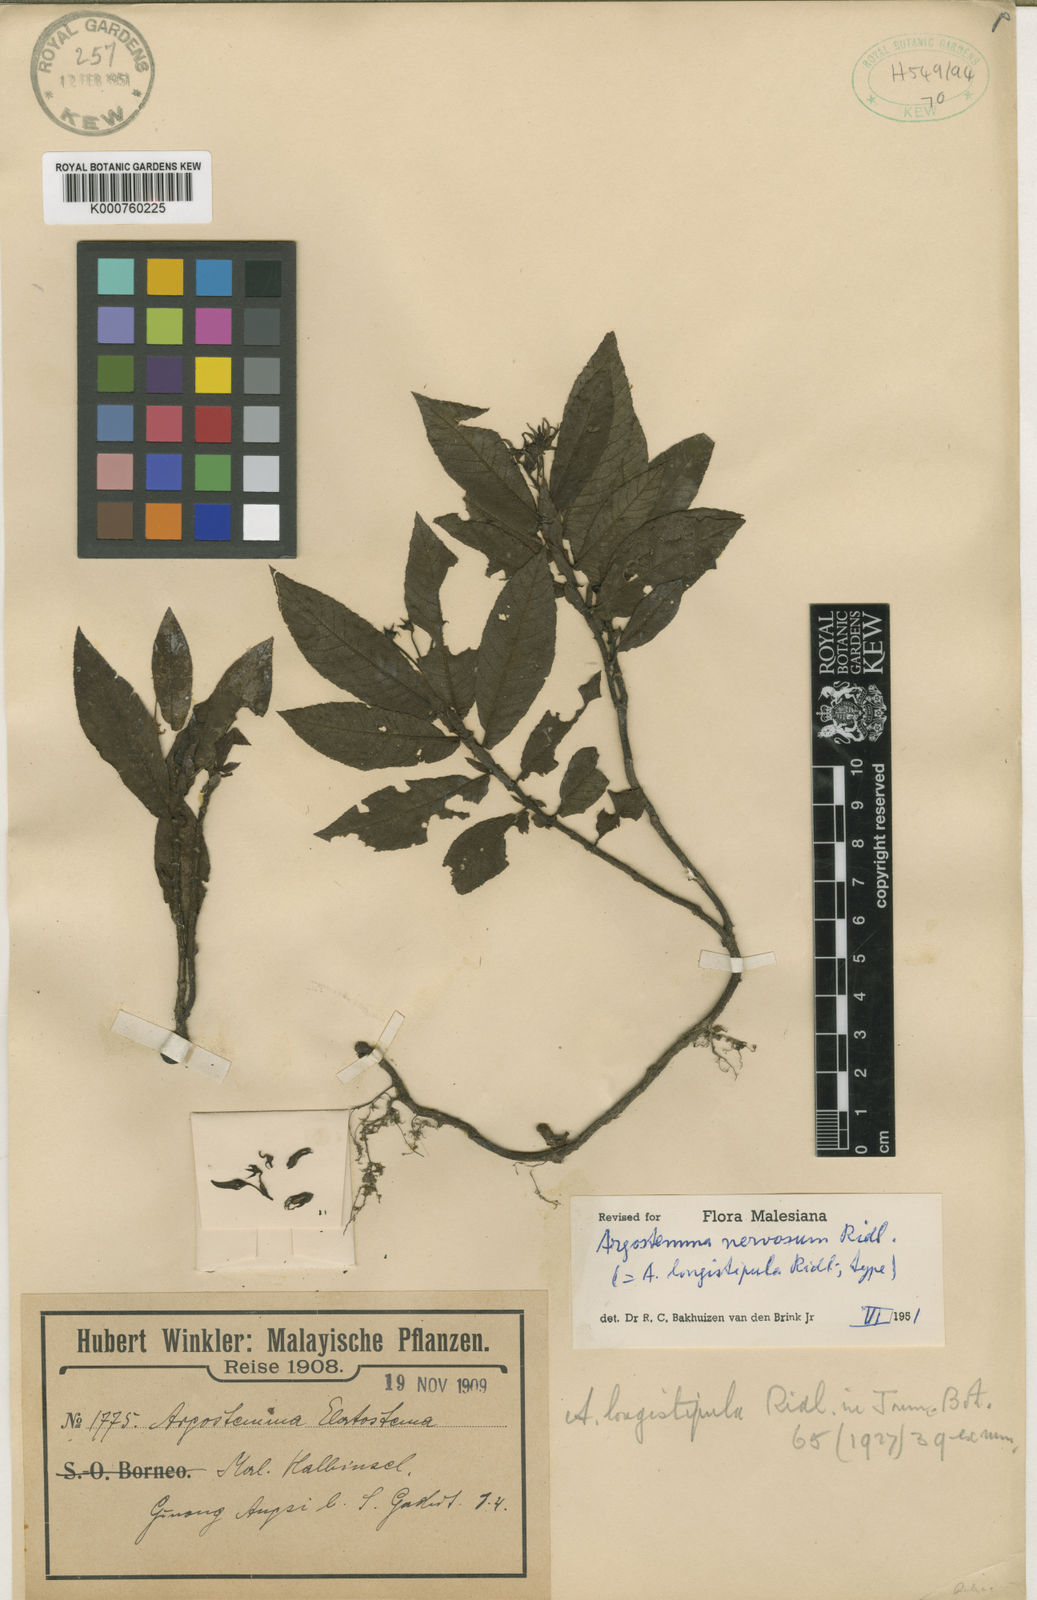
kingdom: Plantae
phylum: Tracheophyta
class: Magnoliopsida
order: Gentianales
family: Rubiaceae
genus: Argostemma
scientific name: Argostemma nervosum
